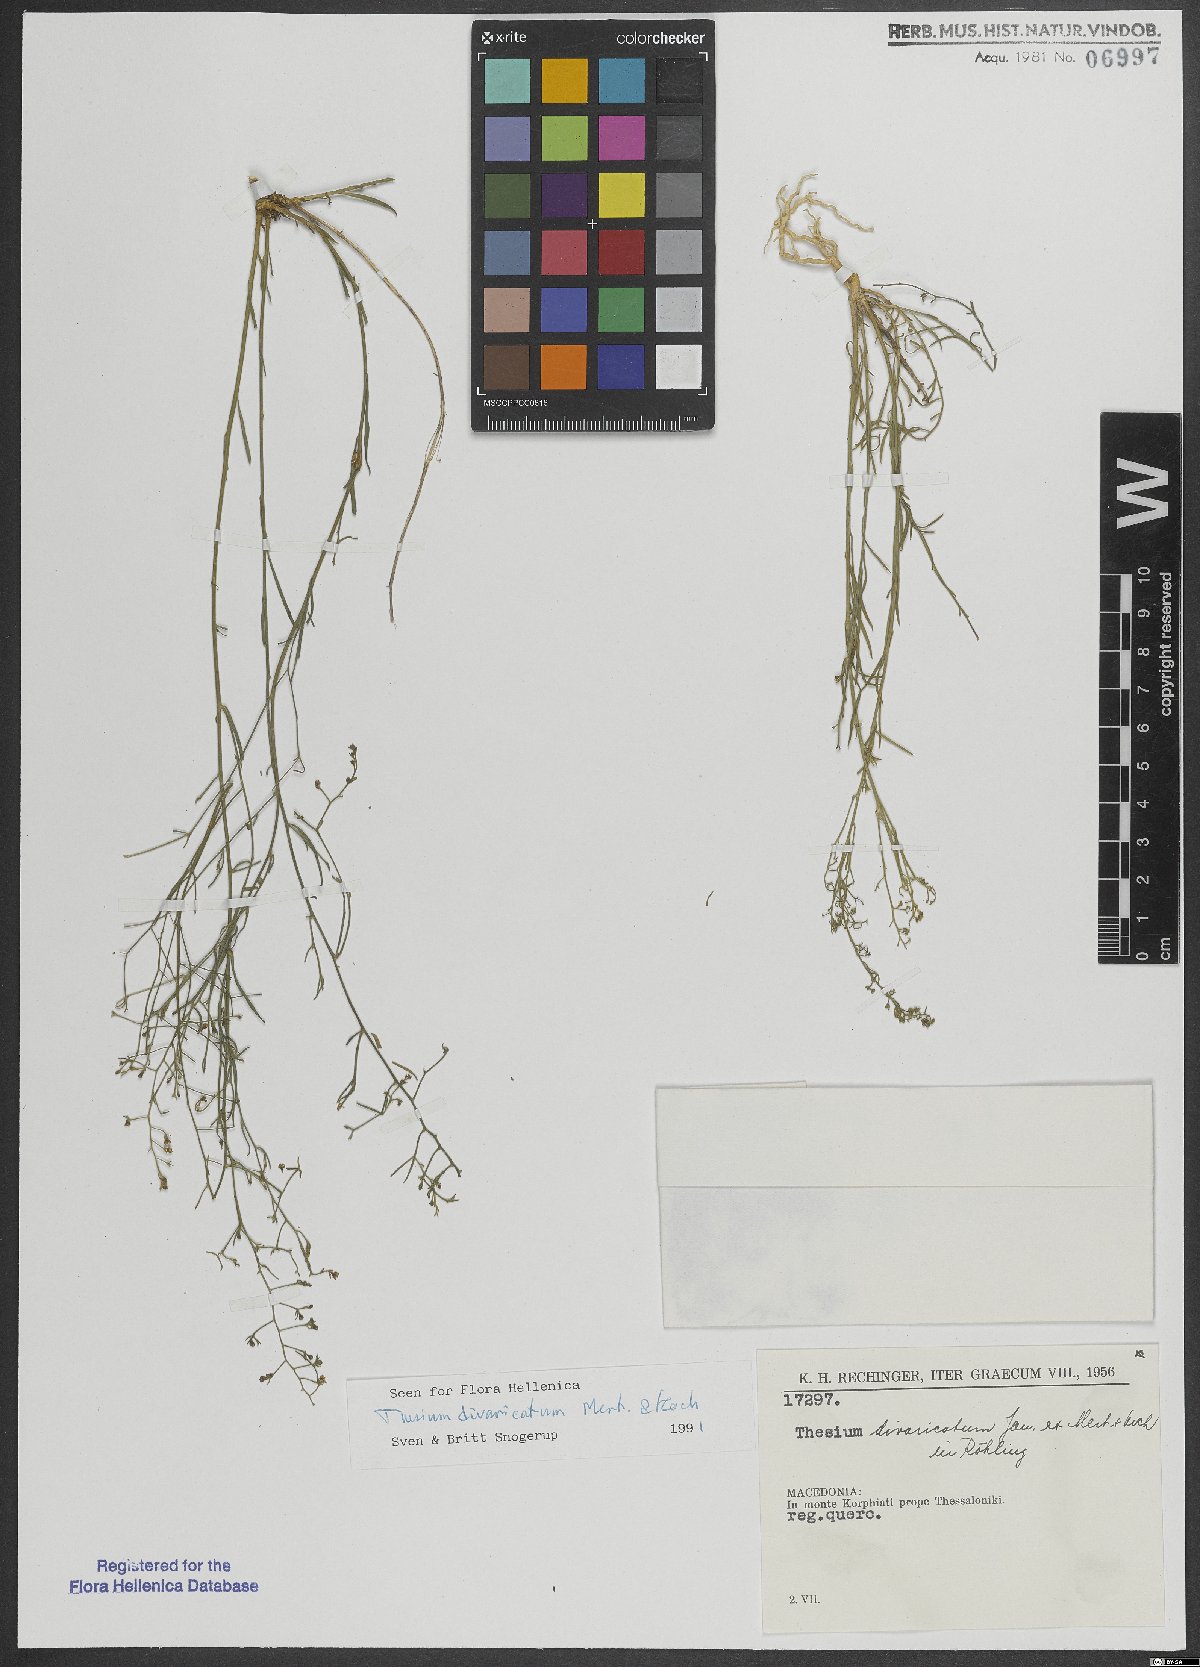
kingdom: Plantae
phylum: Tracheophyta
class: Magnoliopsida
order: Santalales
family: Thesiaceae
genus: Thesium
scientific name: Thesium divaricatum
